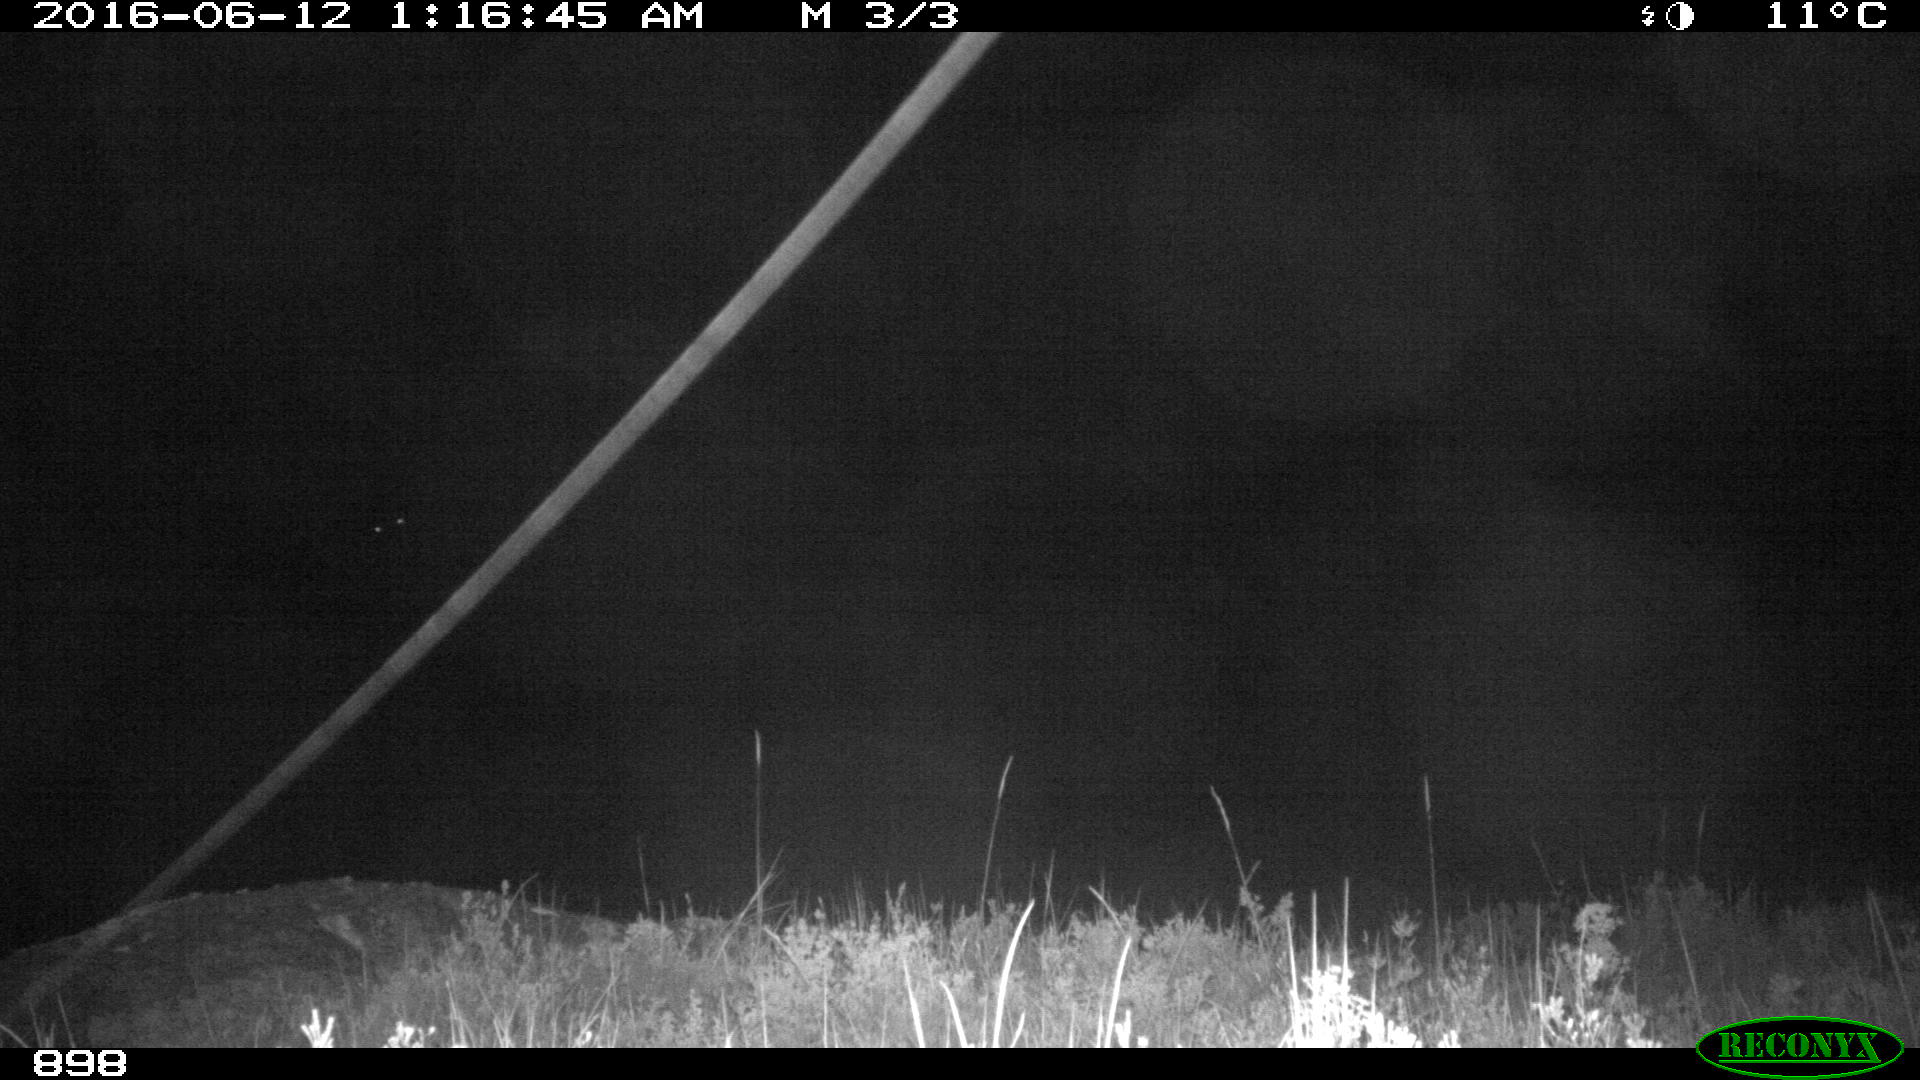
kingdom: Animalia
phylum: Chordata
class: Mammalia
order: Perissodactyla
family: Equidae
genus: Equus
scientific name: Equus caballus
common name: Horse
